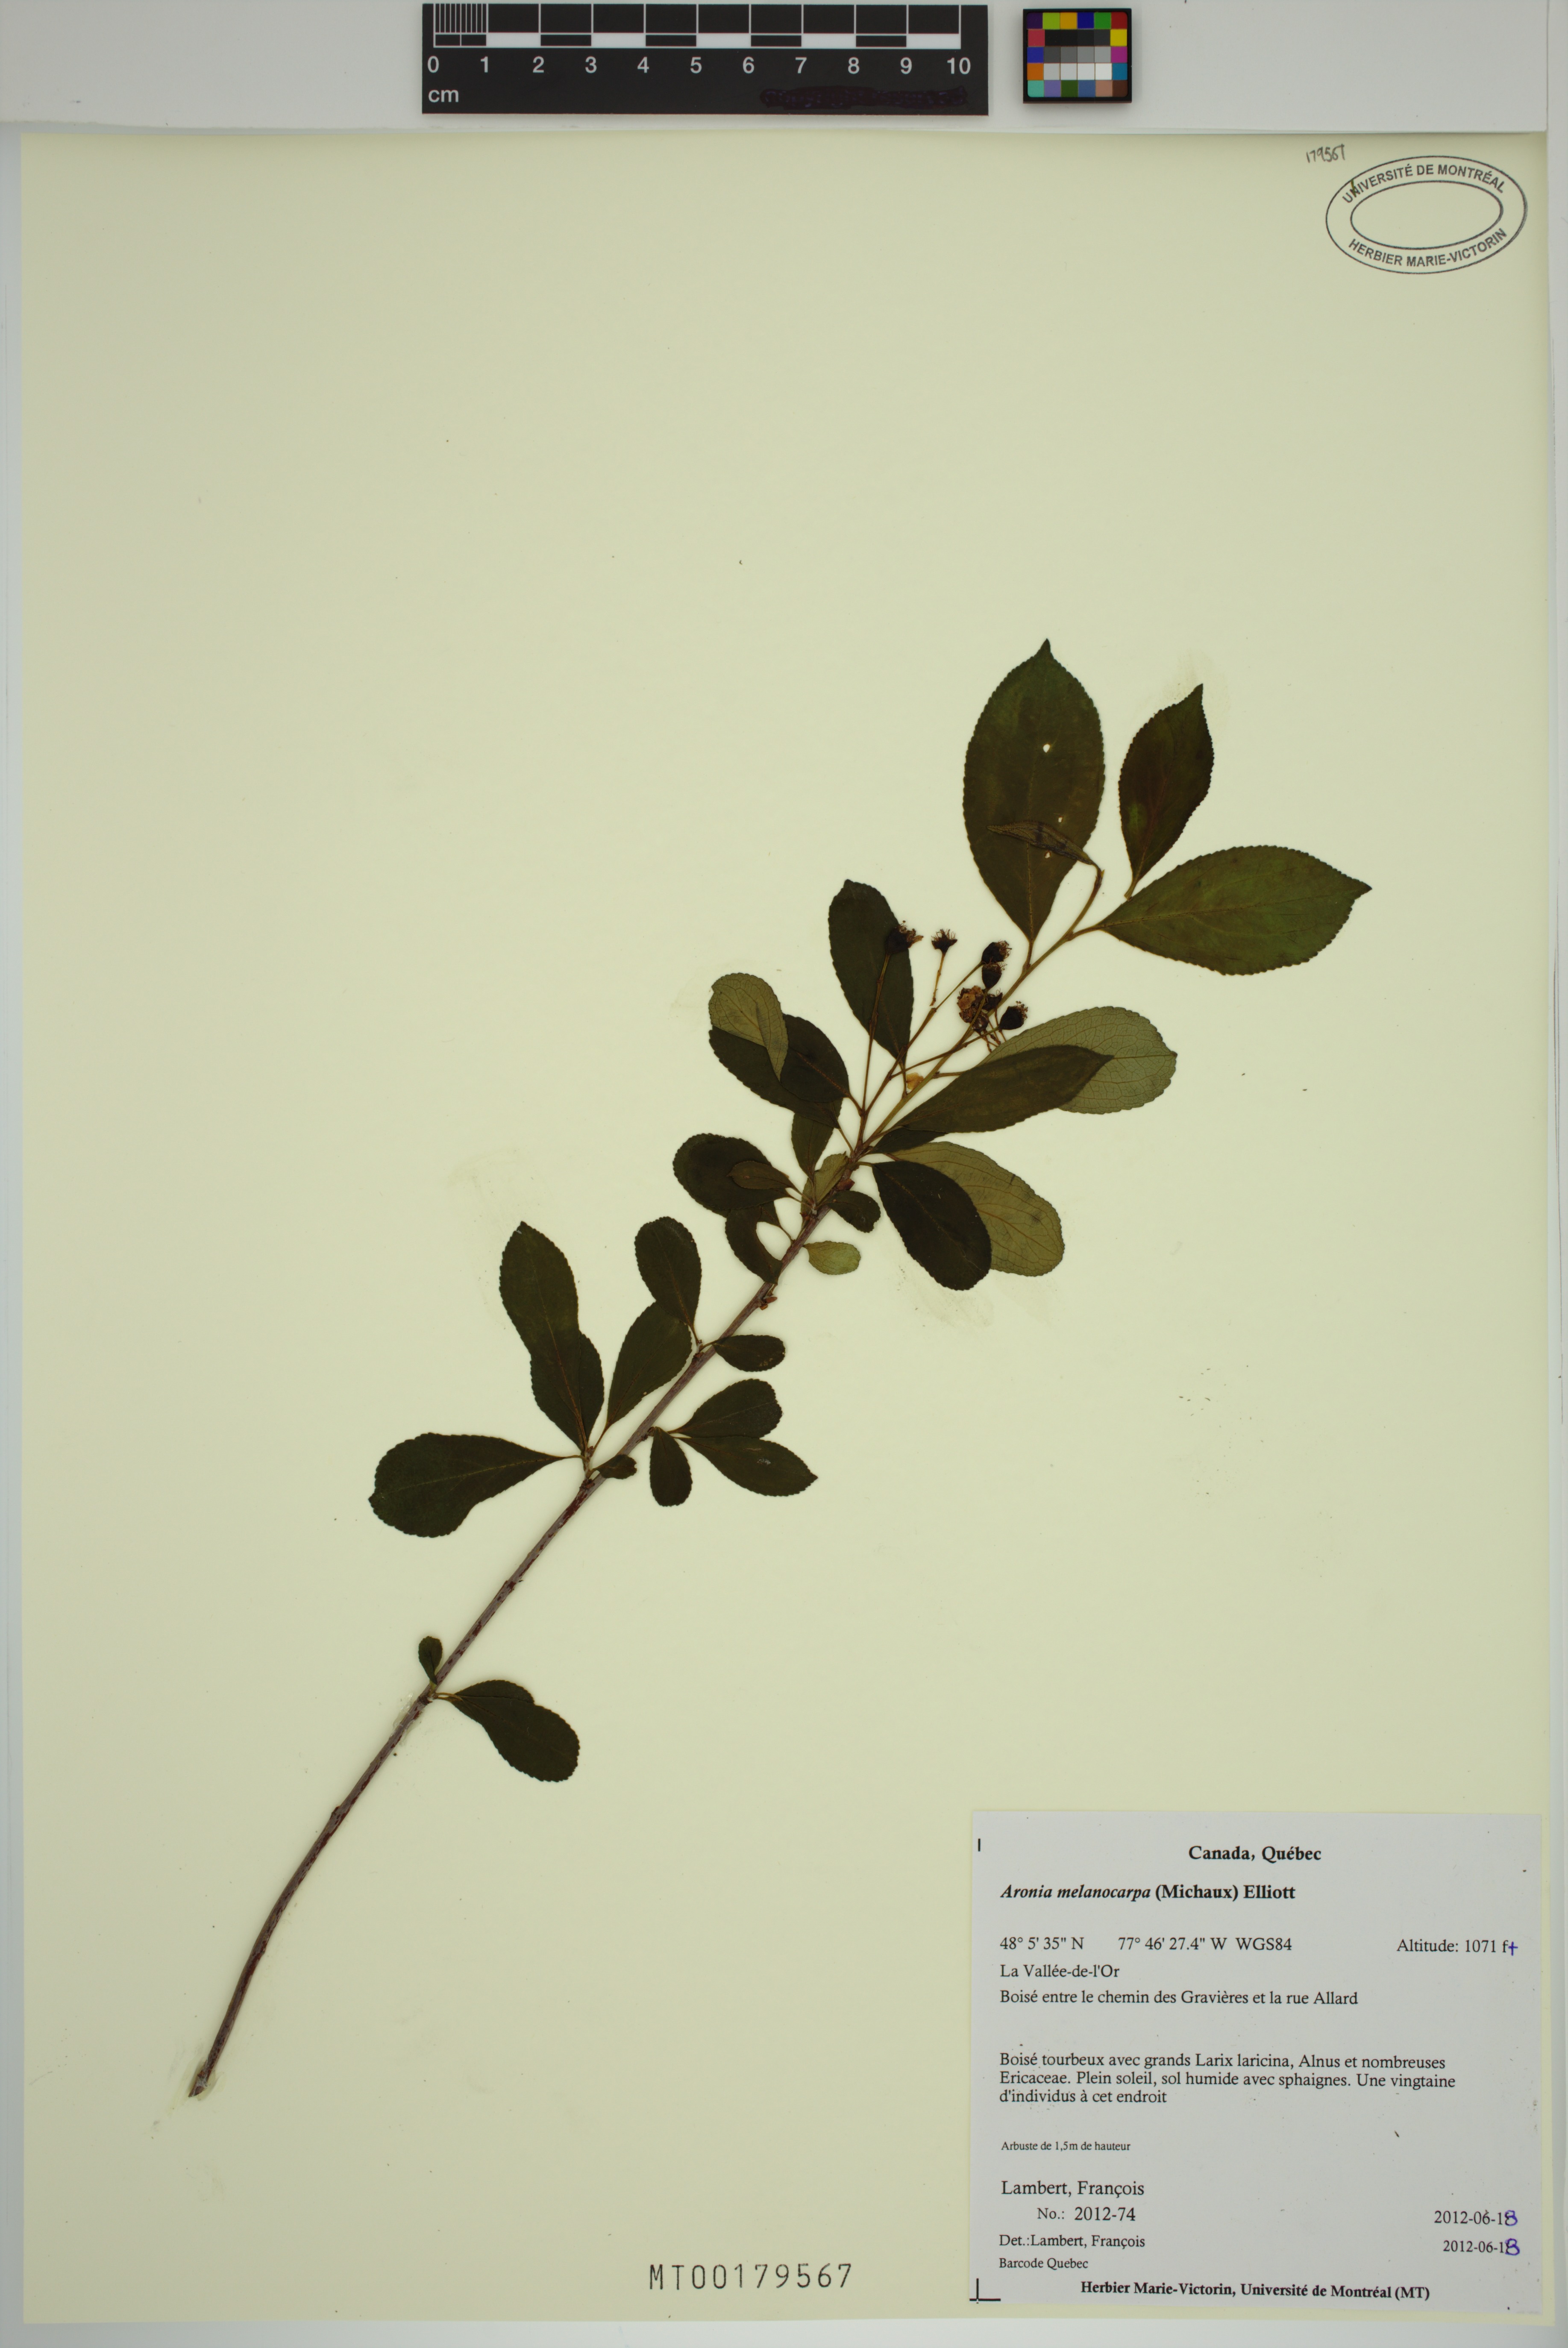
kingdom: Plantae
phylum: Tracheophyta
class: Magnoliopsida
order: Rosales
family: Rosaceae
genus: Aronia
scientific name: Aronia melanocarpa
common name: Black chokeberry
